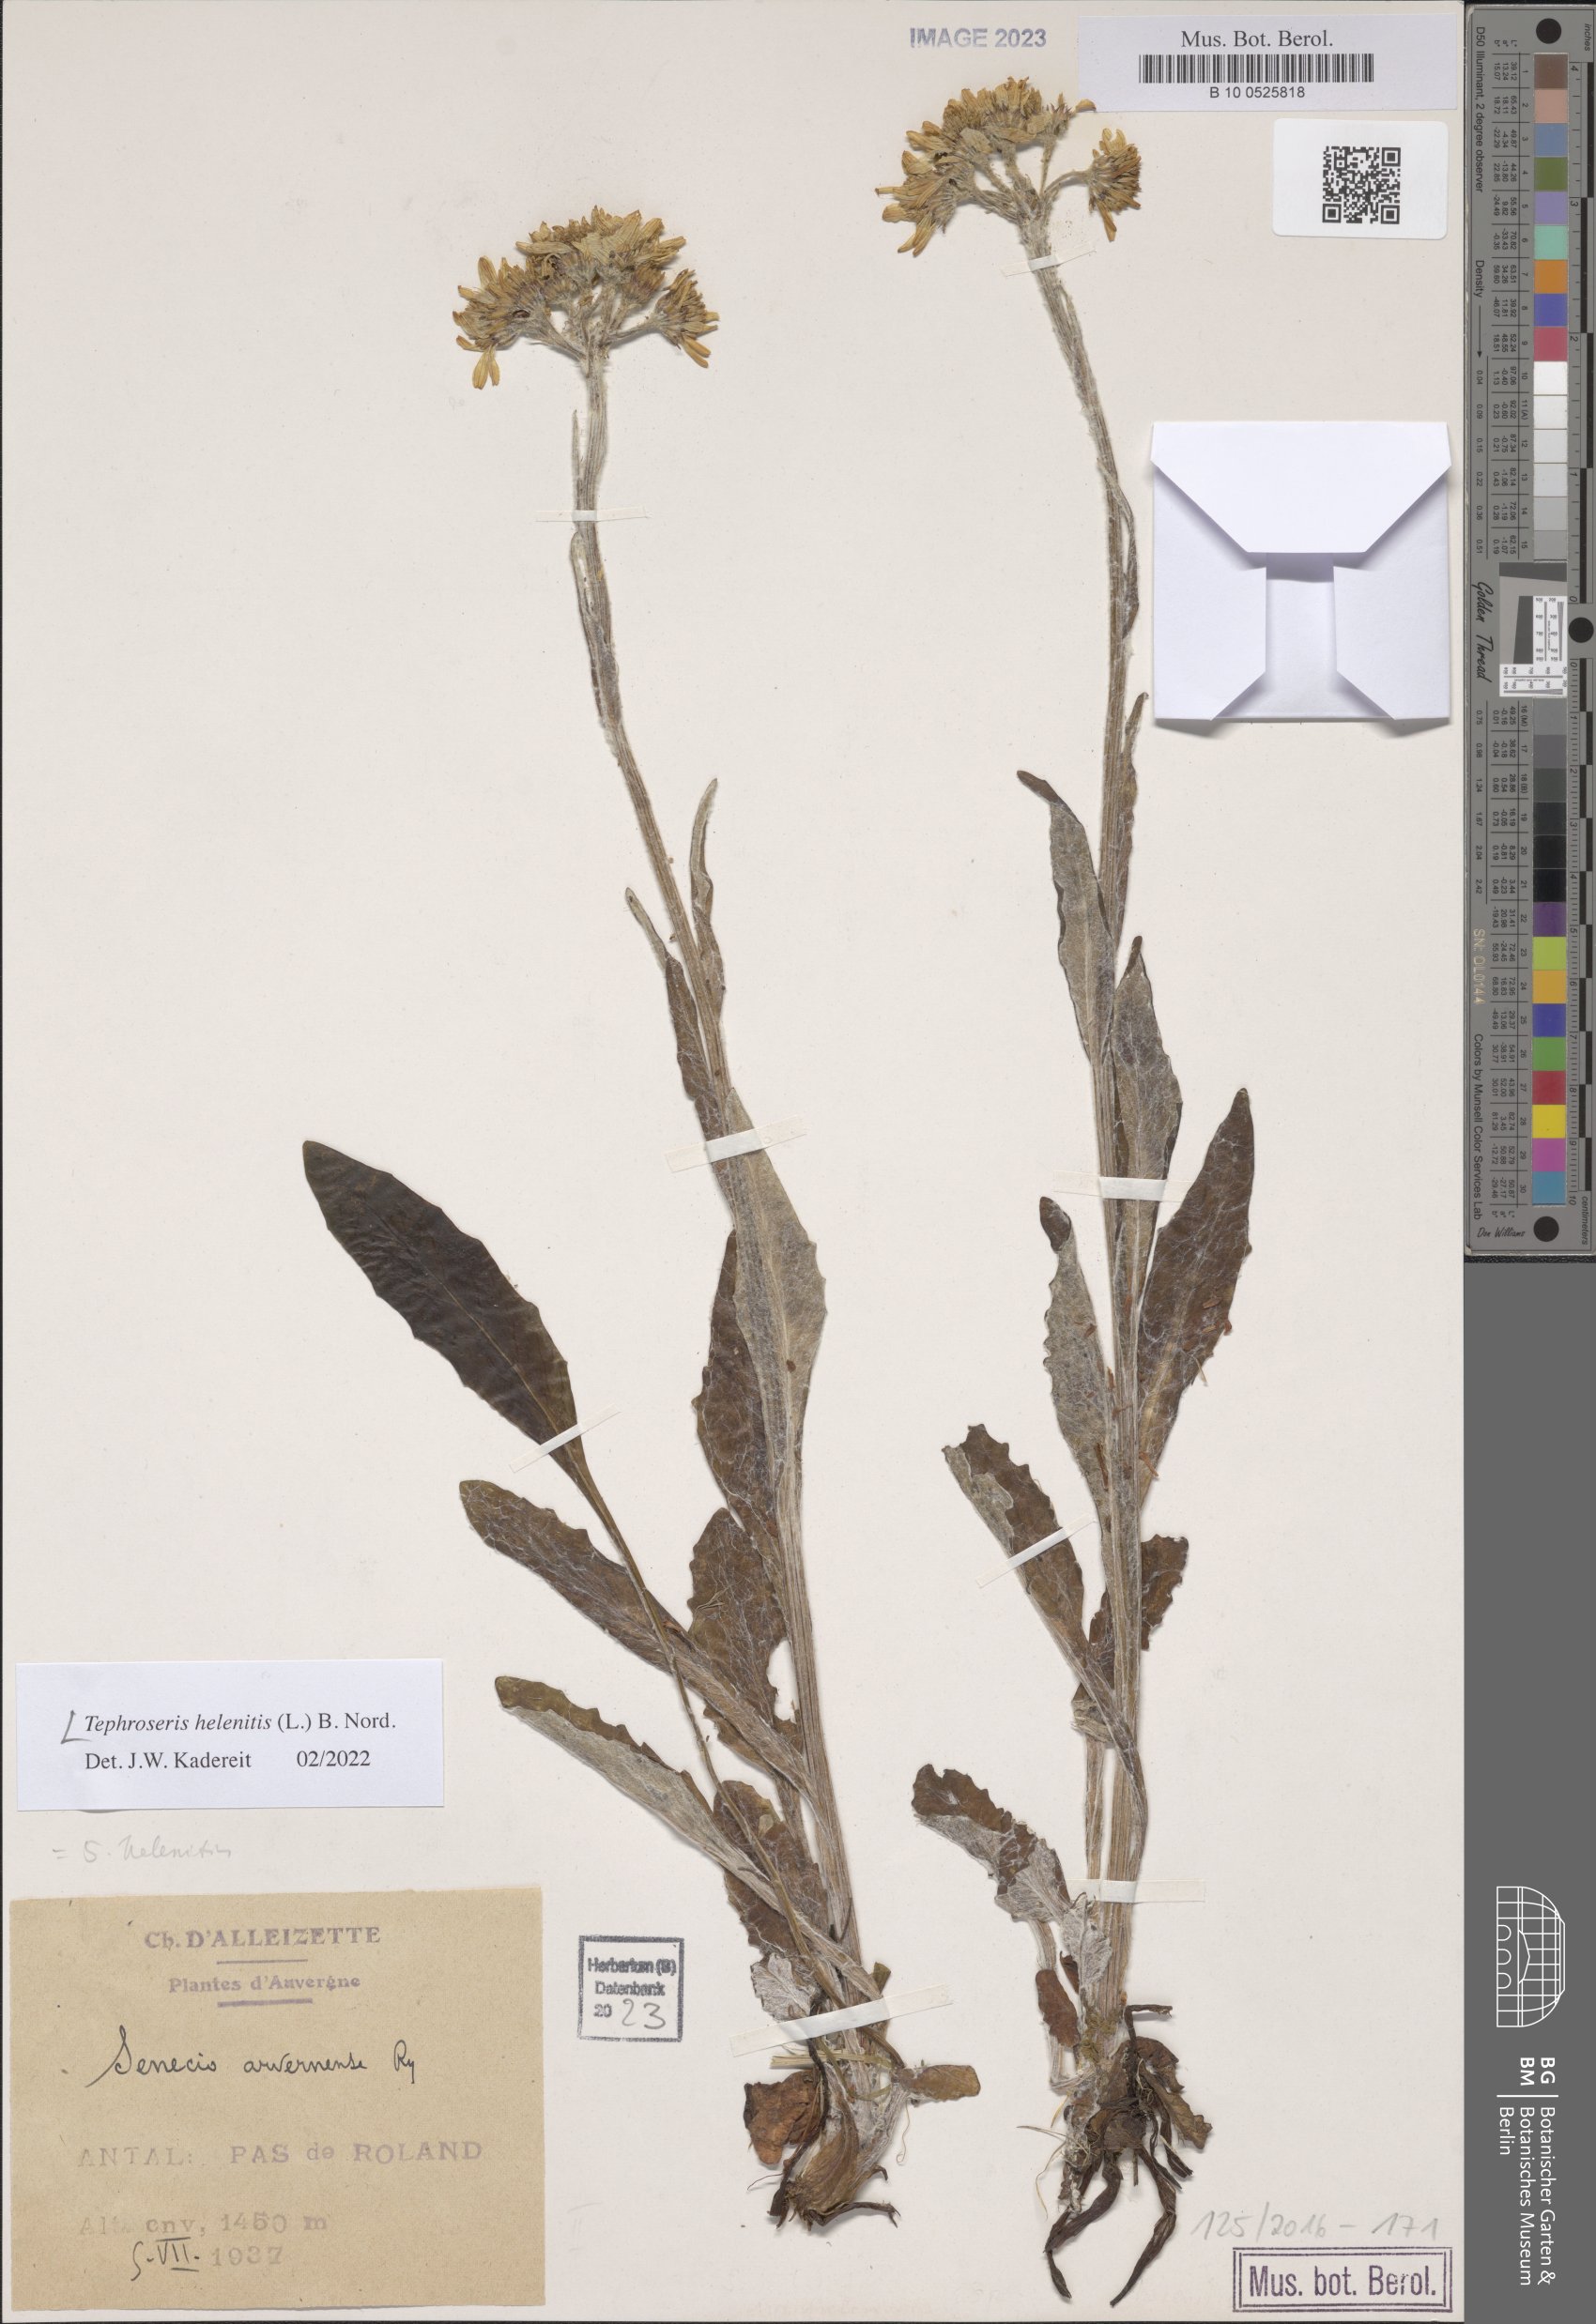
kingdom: Plantae
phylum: Tracheophyta
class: Magnoliopsida
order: Asterales
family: Asteraceae
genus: Tephroseris
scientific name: Tephroseris helenitis
